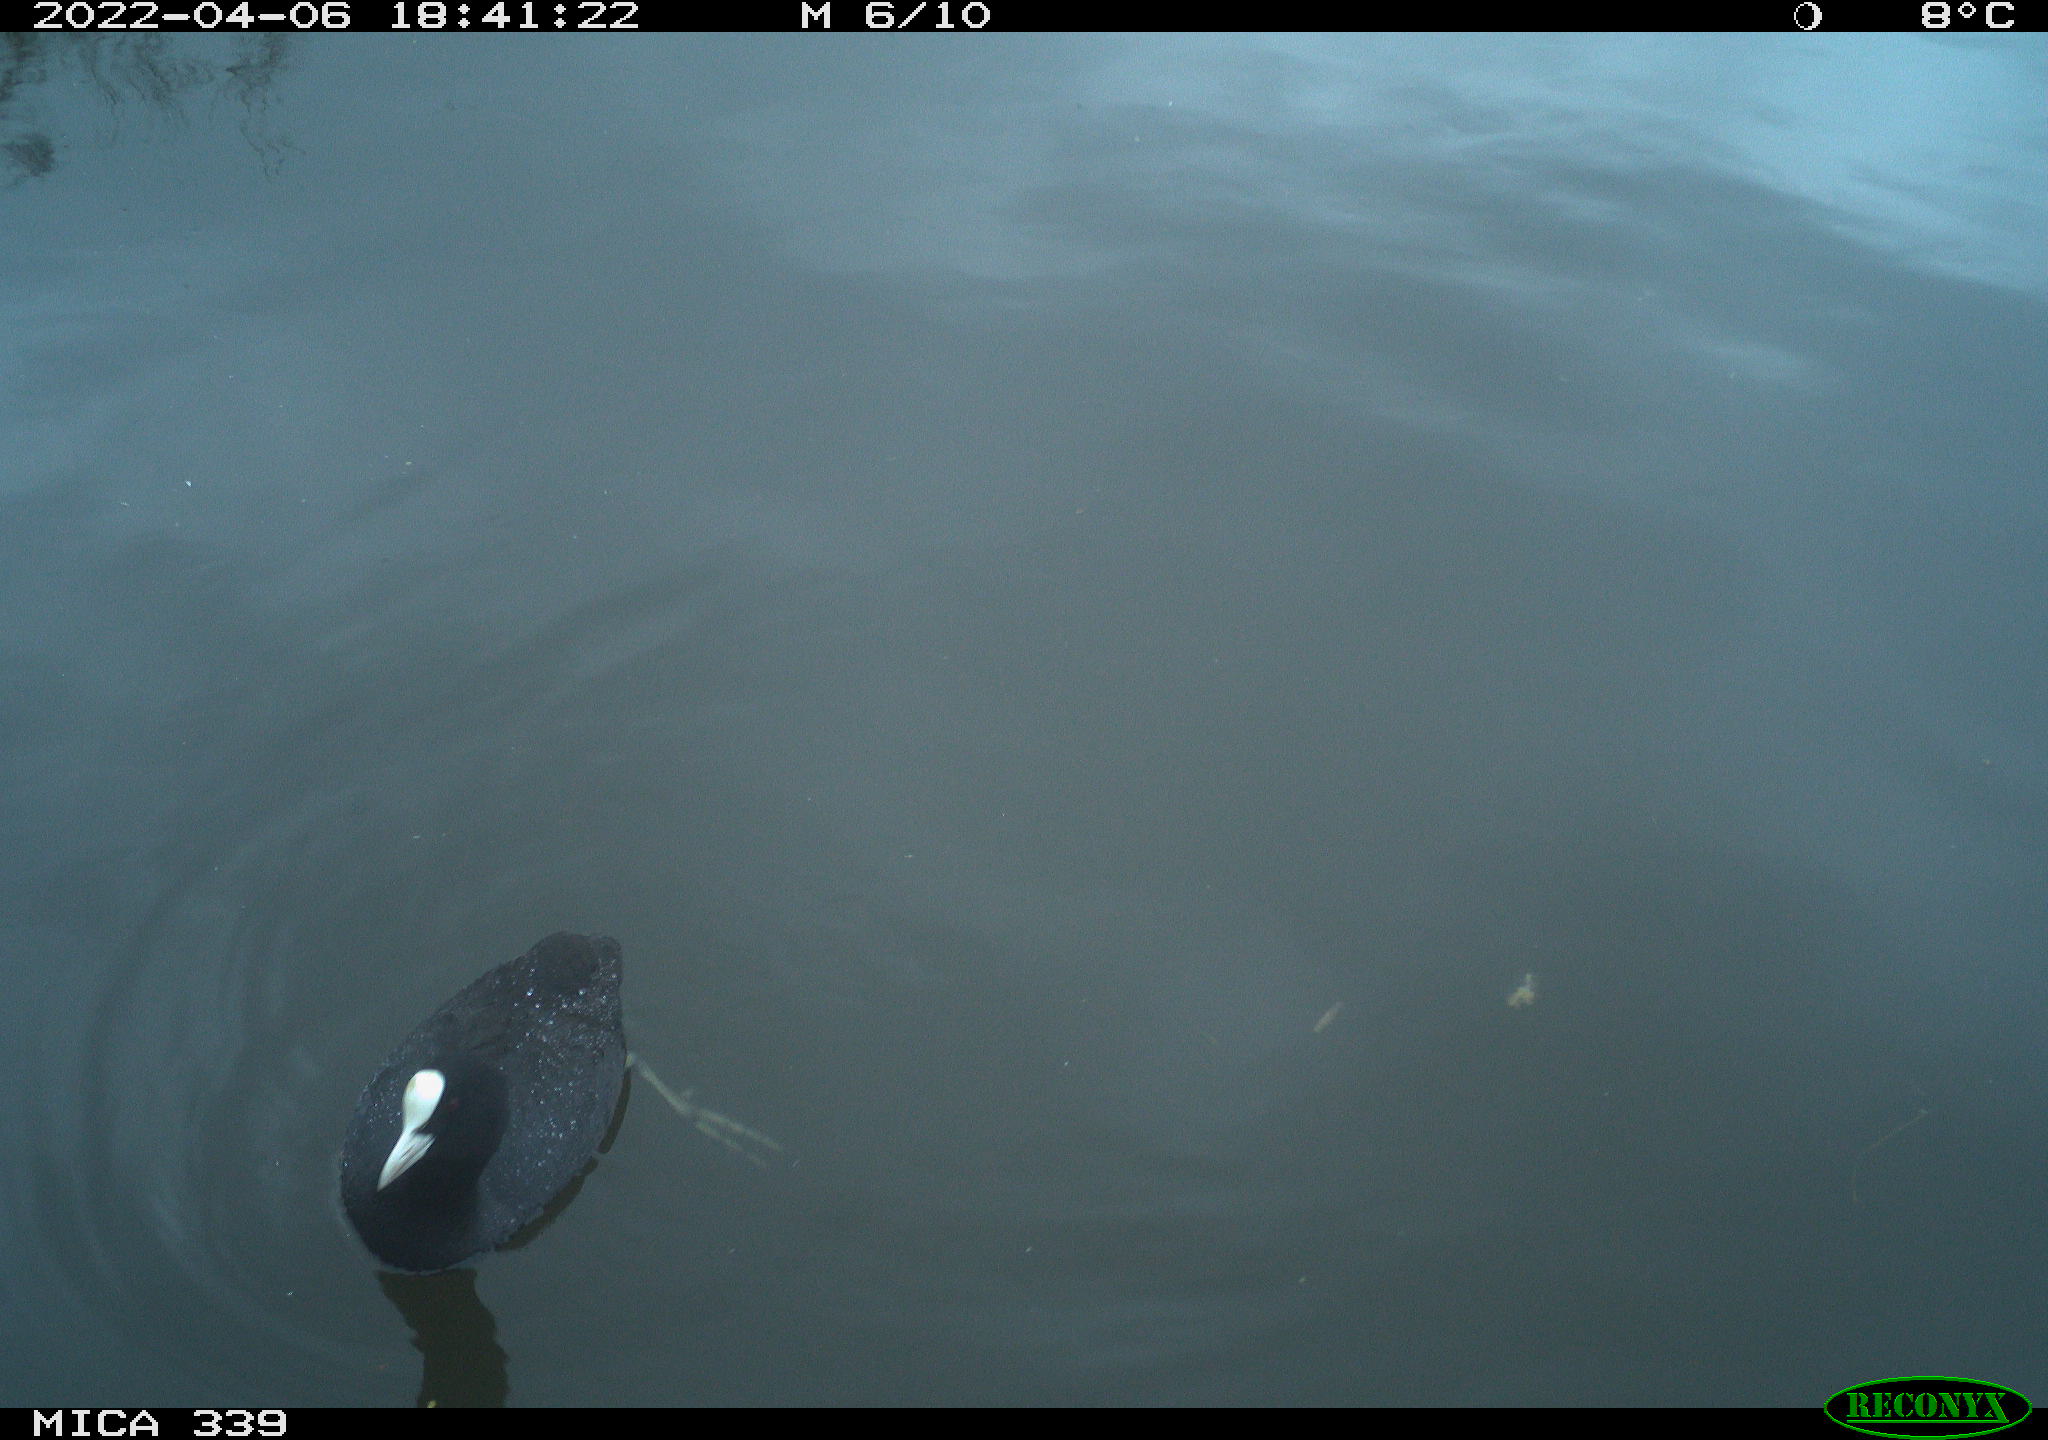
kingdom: Animalia
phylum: Chordata
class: Aves
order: Gruiformes
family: Rallidae
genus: Fulica
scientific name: Fulica atra
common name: Eurasian coot
